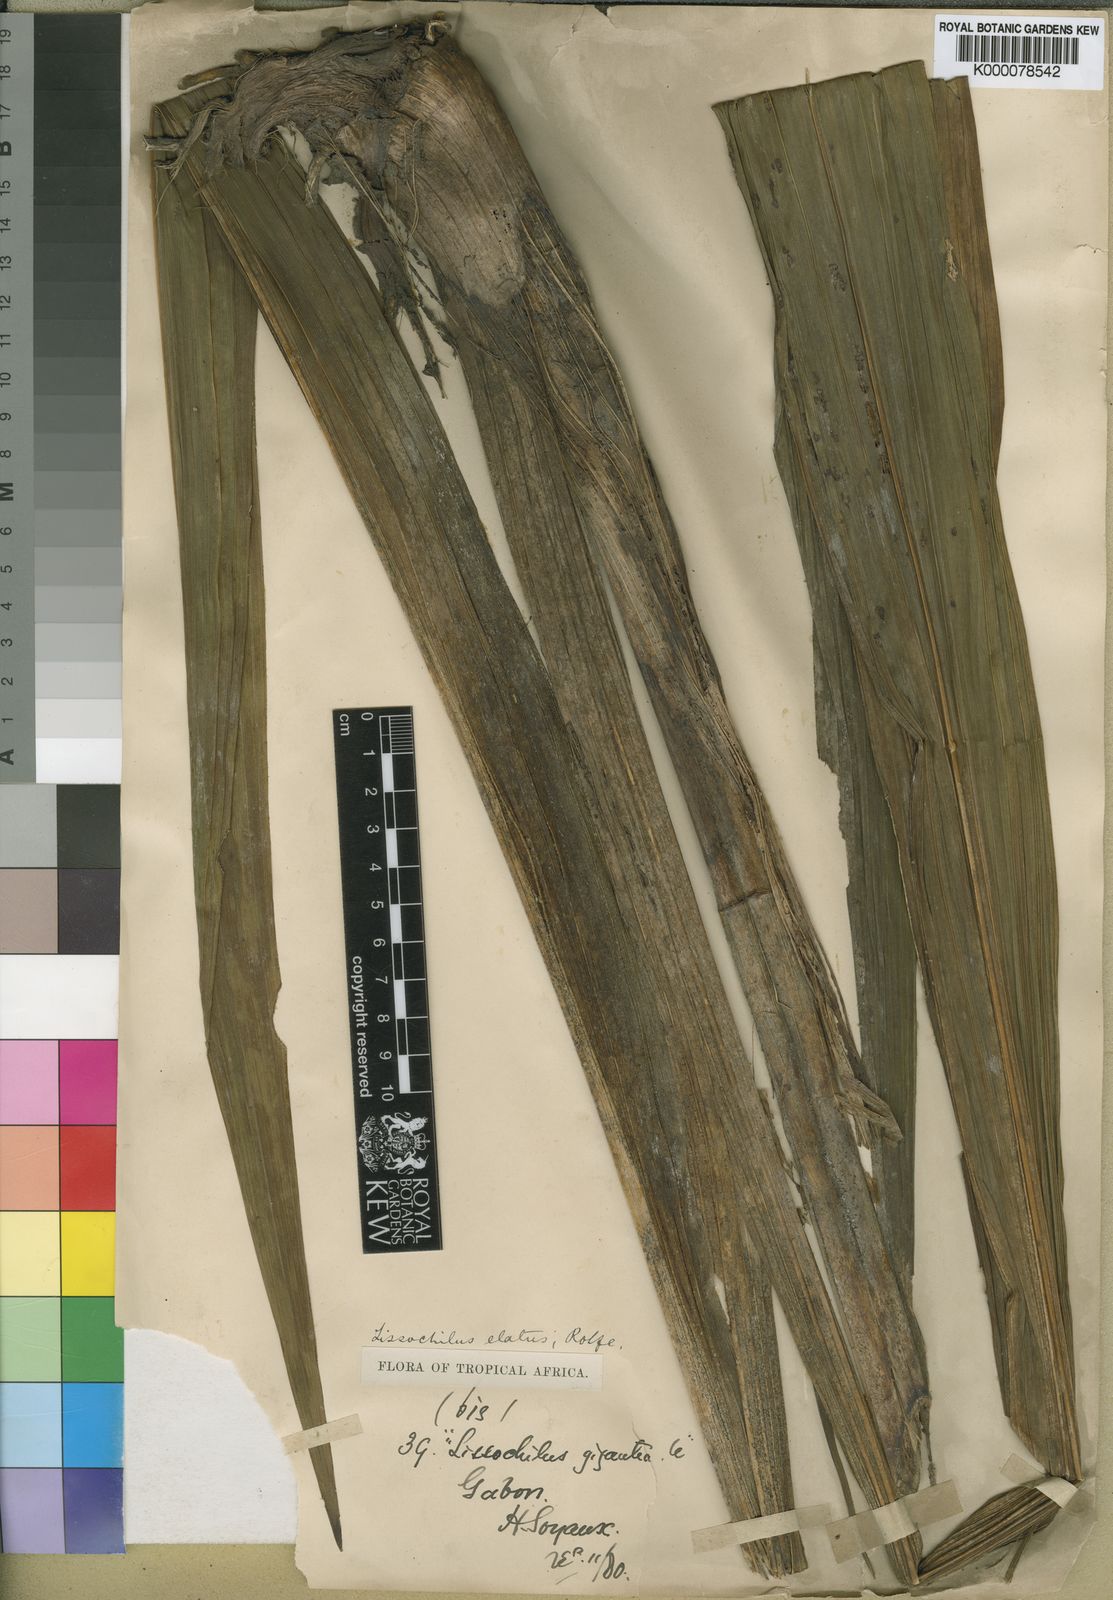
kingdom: Plantae
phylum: Tracheophyta
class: Liliopsida
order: Asparagales
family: Orchidaceae
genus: Eulophia
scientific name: Eulophia bouliawongo
